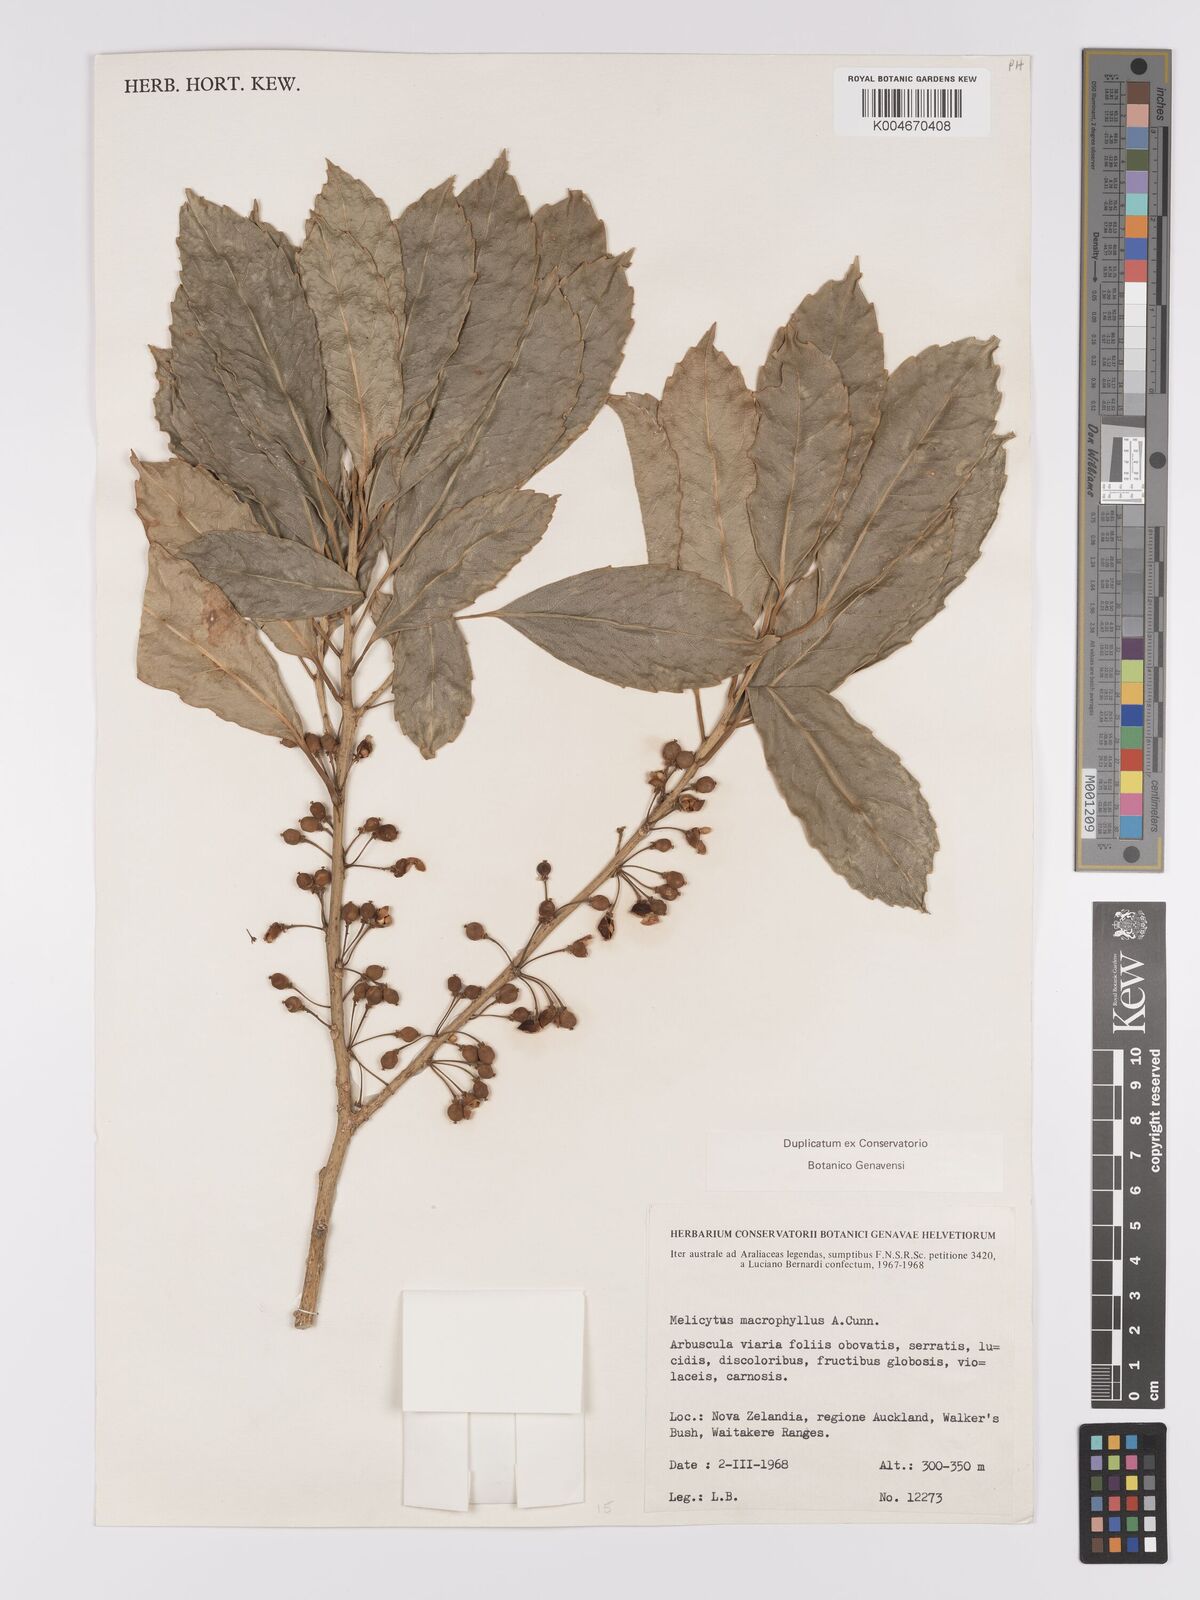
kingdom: Plantae
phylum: Tracheophyta
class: Magnoliopsida
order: Malpighiales
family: Violaceae
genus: Melicytus
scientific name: Melicytus macrophyllus
